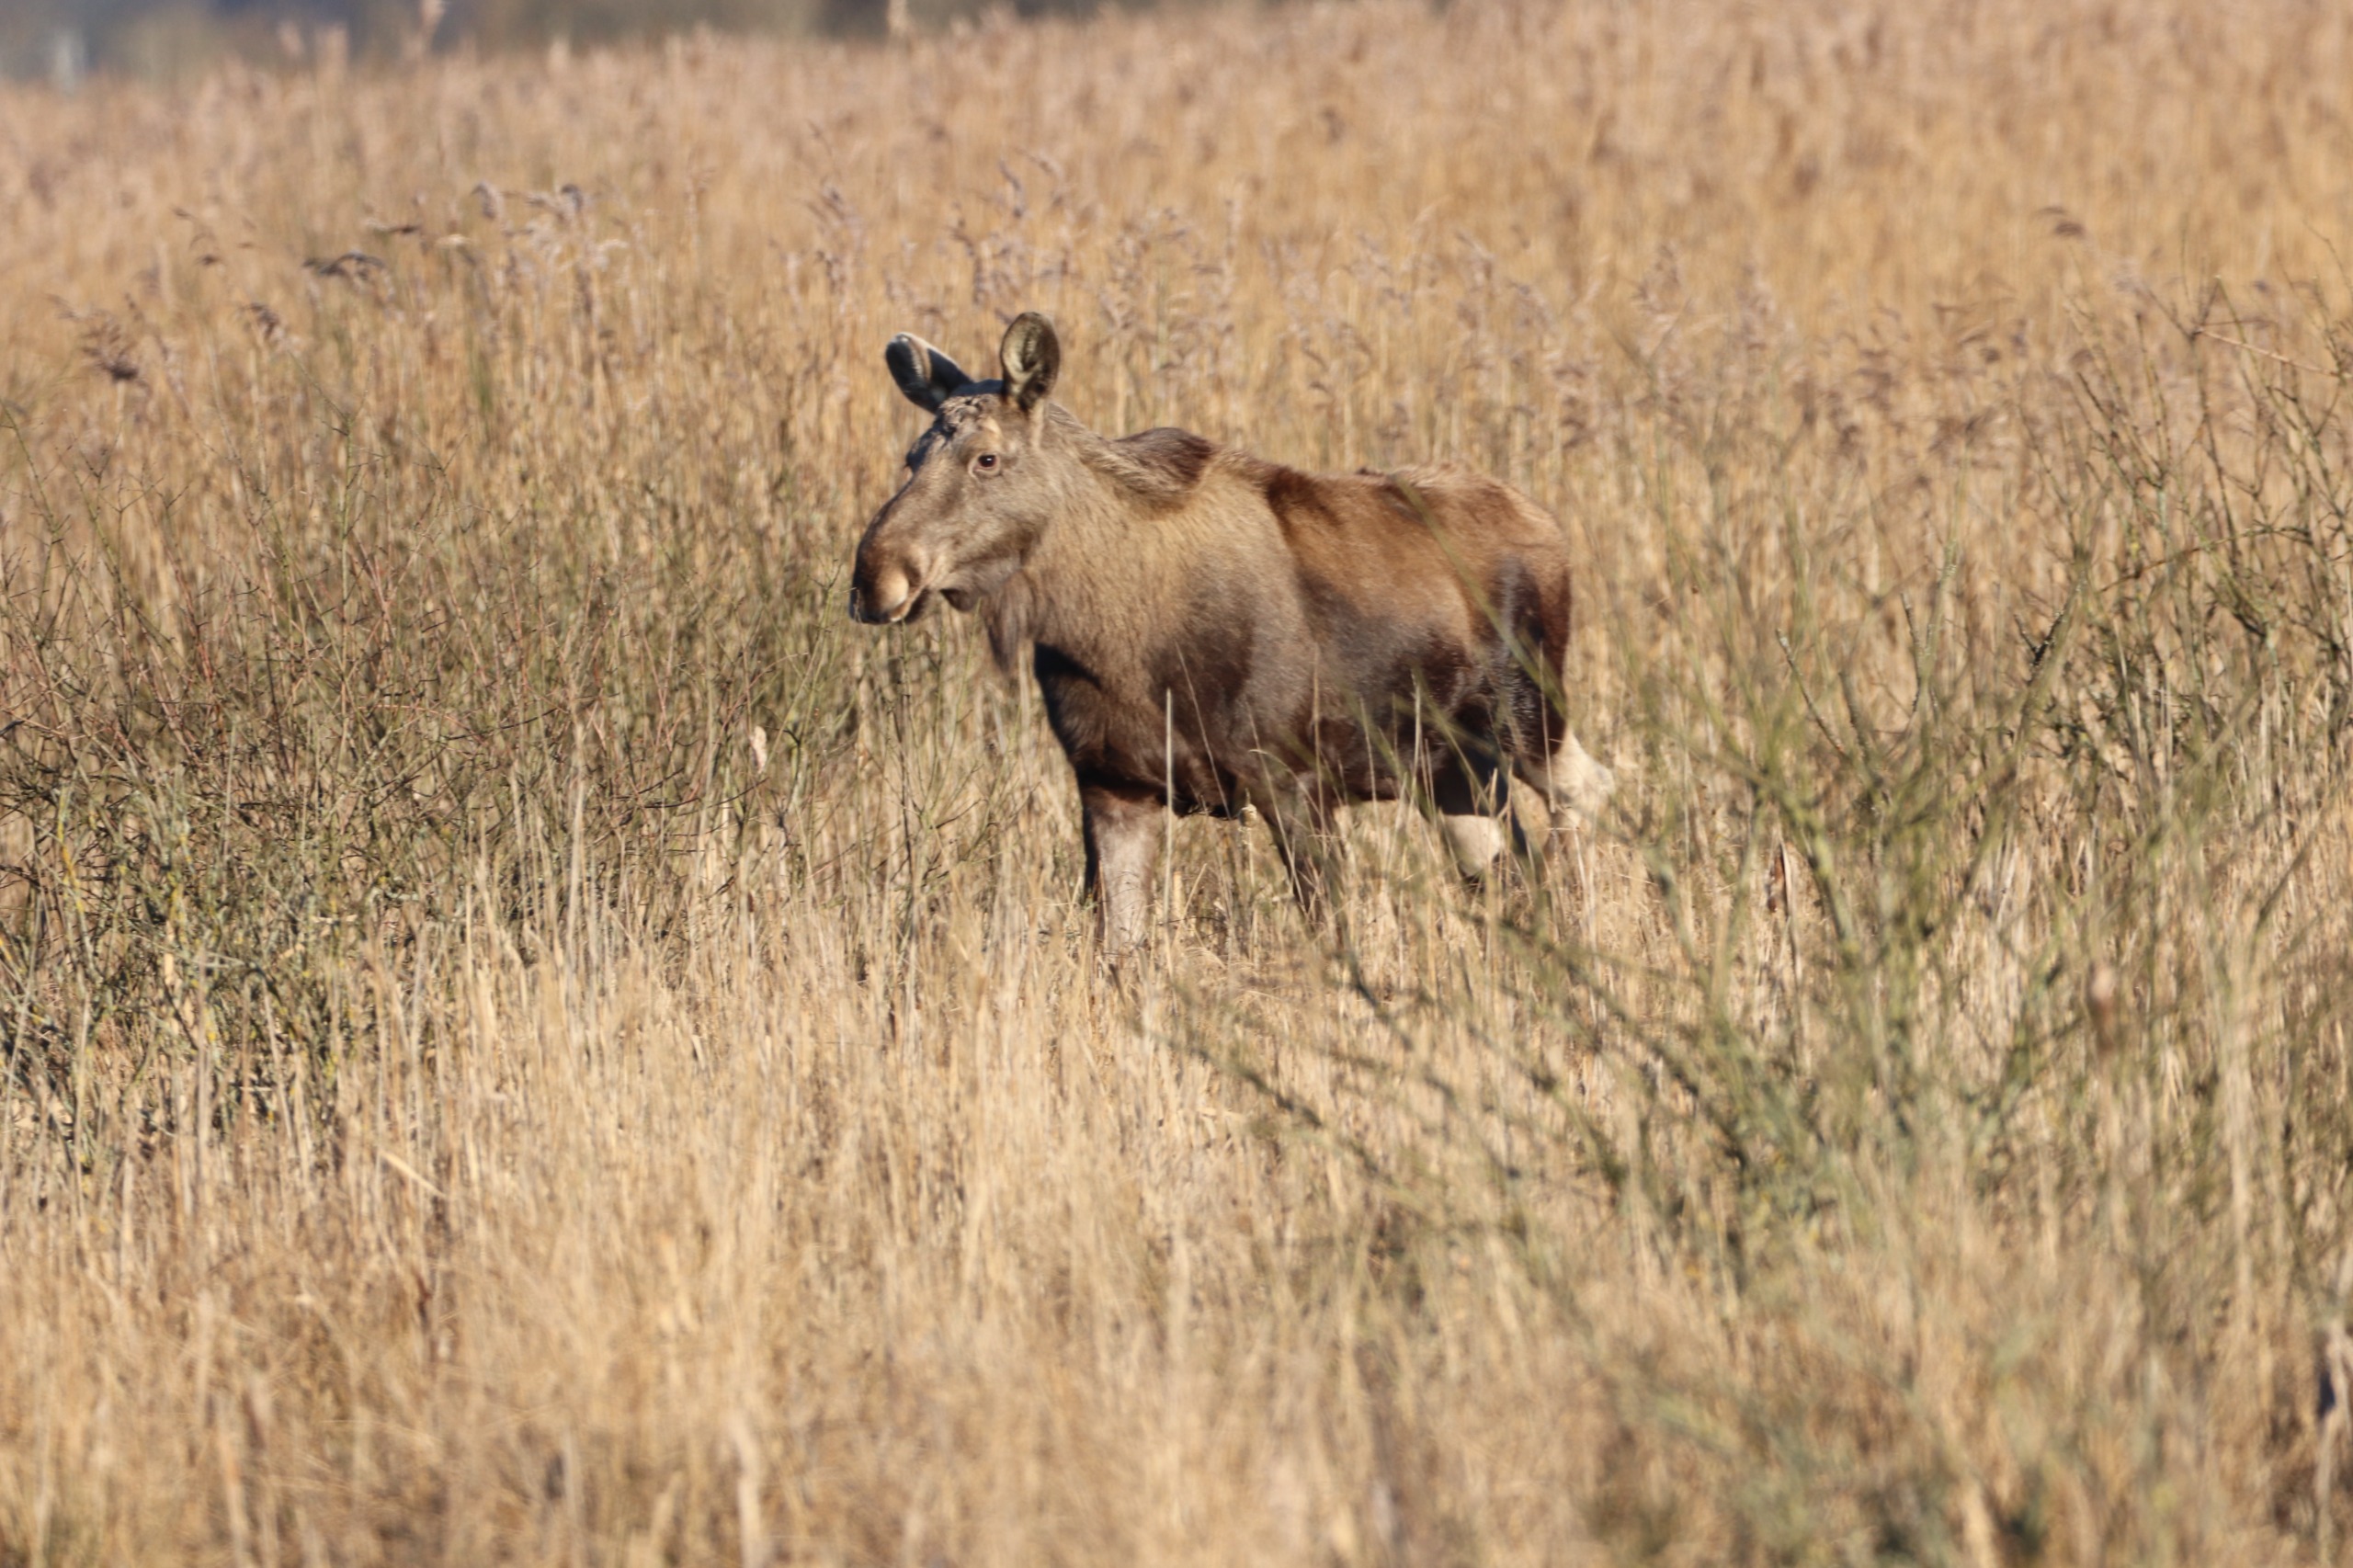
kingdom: Animalia
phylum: Chordata
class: Mammalia
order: Artiodactyla
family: Cervidae
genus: Alces
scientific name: Alces alces
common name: Elg
